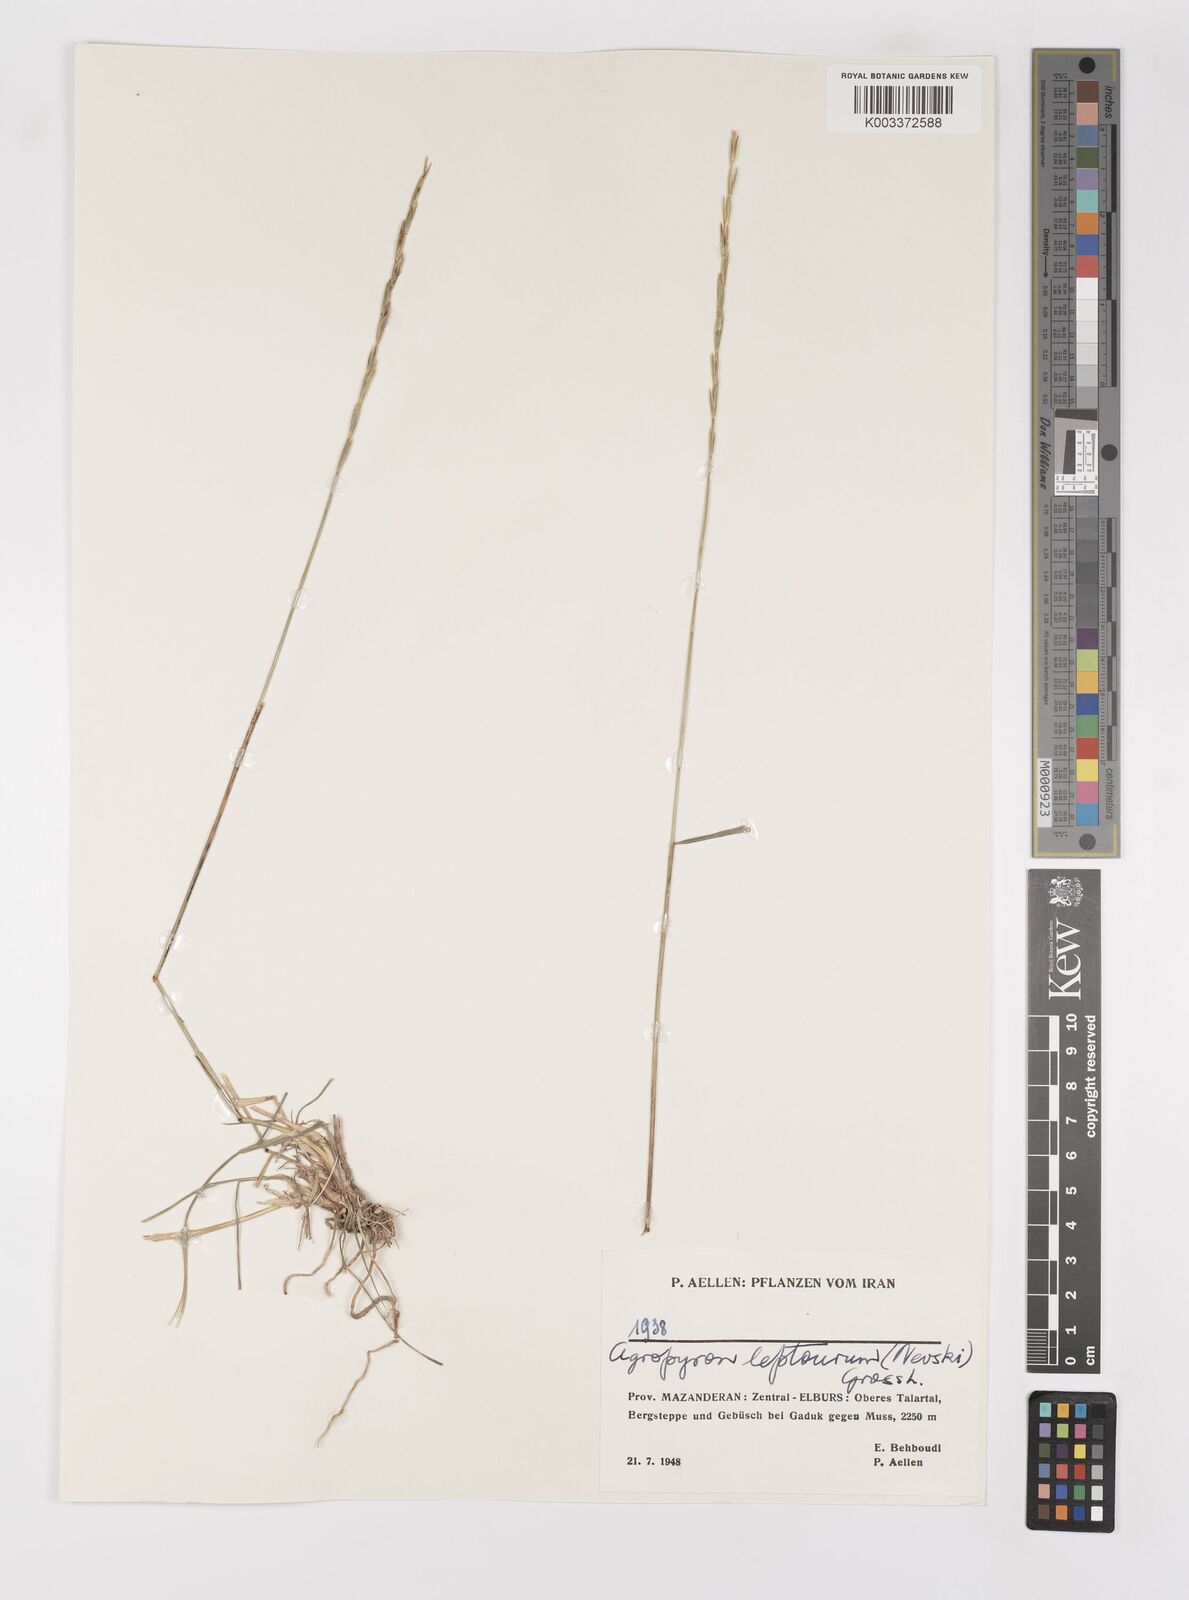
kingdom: Plantae
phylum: Tracheophyta
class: Liliopsida
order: Poales
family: Poaceae
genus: Elymus
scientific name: Elymus transhyrcanus
